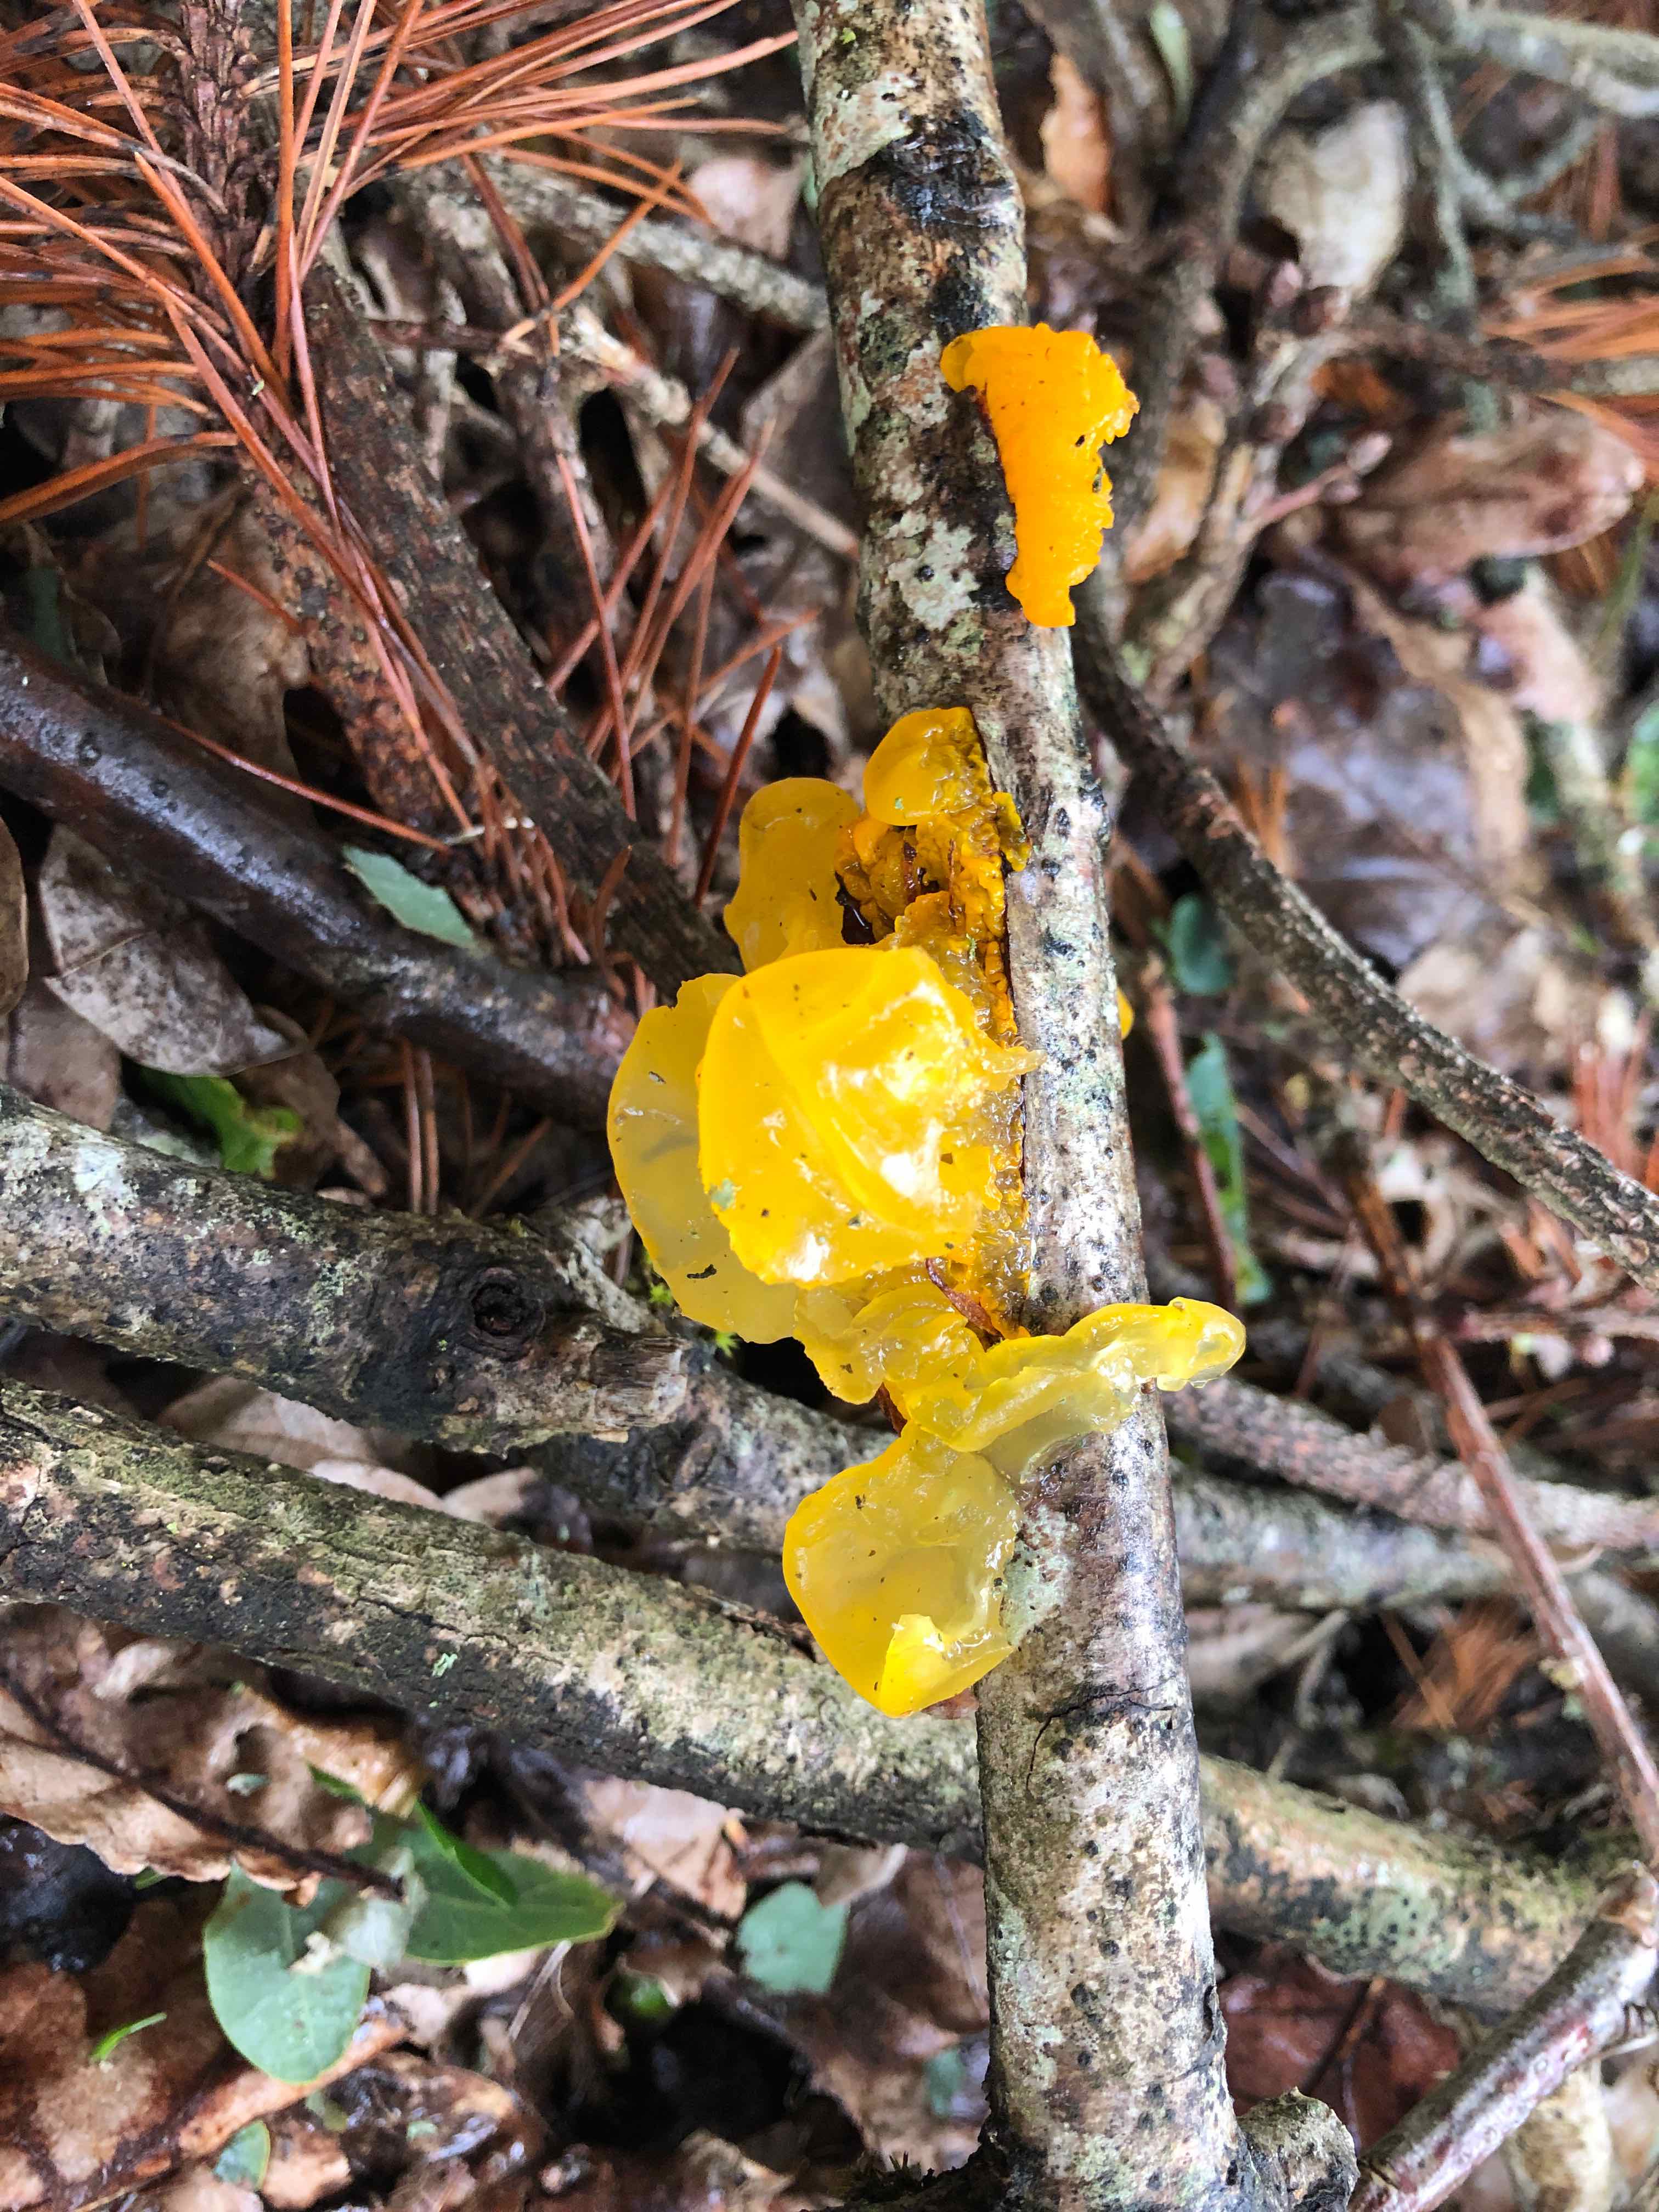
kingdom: Fungi
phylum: Basidiomycota
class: Tremellomycetes
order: Tremellales
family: Tremellaceae
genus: Tremella
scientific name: Tremella mesenterica
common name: gul bævresvamp
